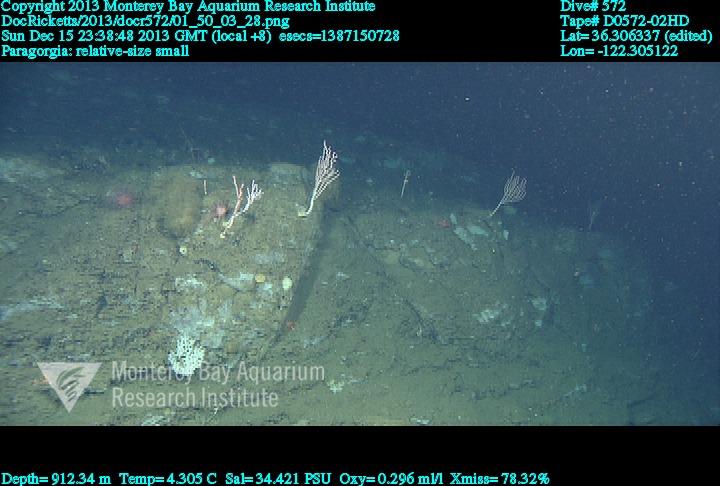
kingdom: Animalia
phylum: Cnidaria
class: Anthozoa
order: Scleralcyonacea
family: Coralliidae
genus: Sibogagorgia
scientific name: Sibogagorgia cauliflora
